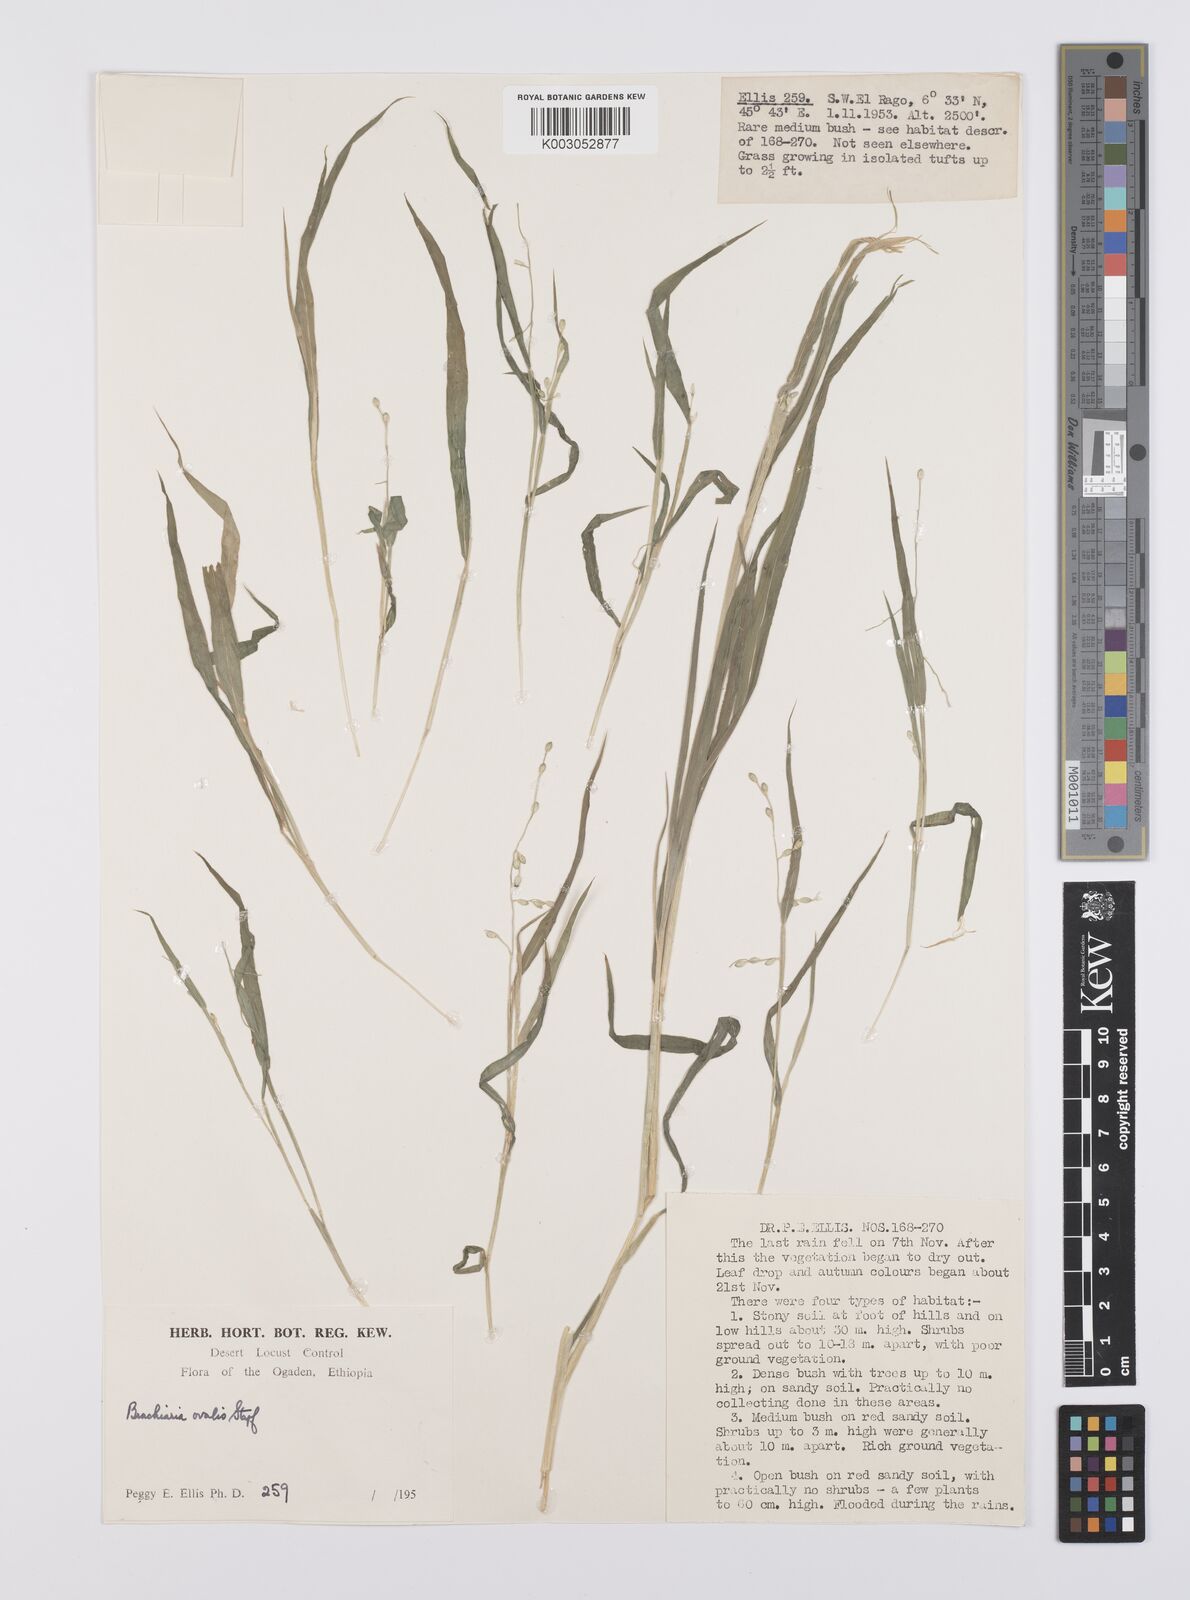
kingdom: Plantae
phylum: Tracheophyta
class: Liliopsida
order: Poales
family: Poaceae
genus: Urochloa
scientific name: Urochloa ovalis
